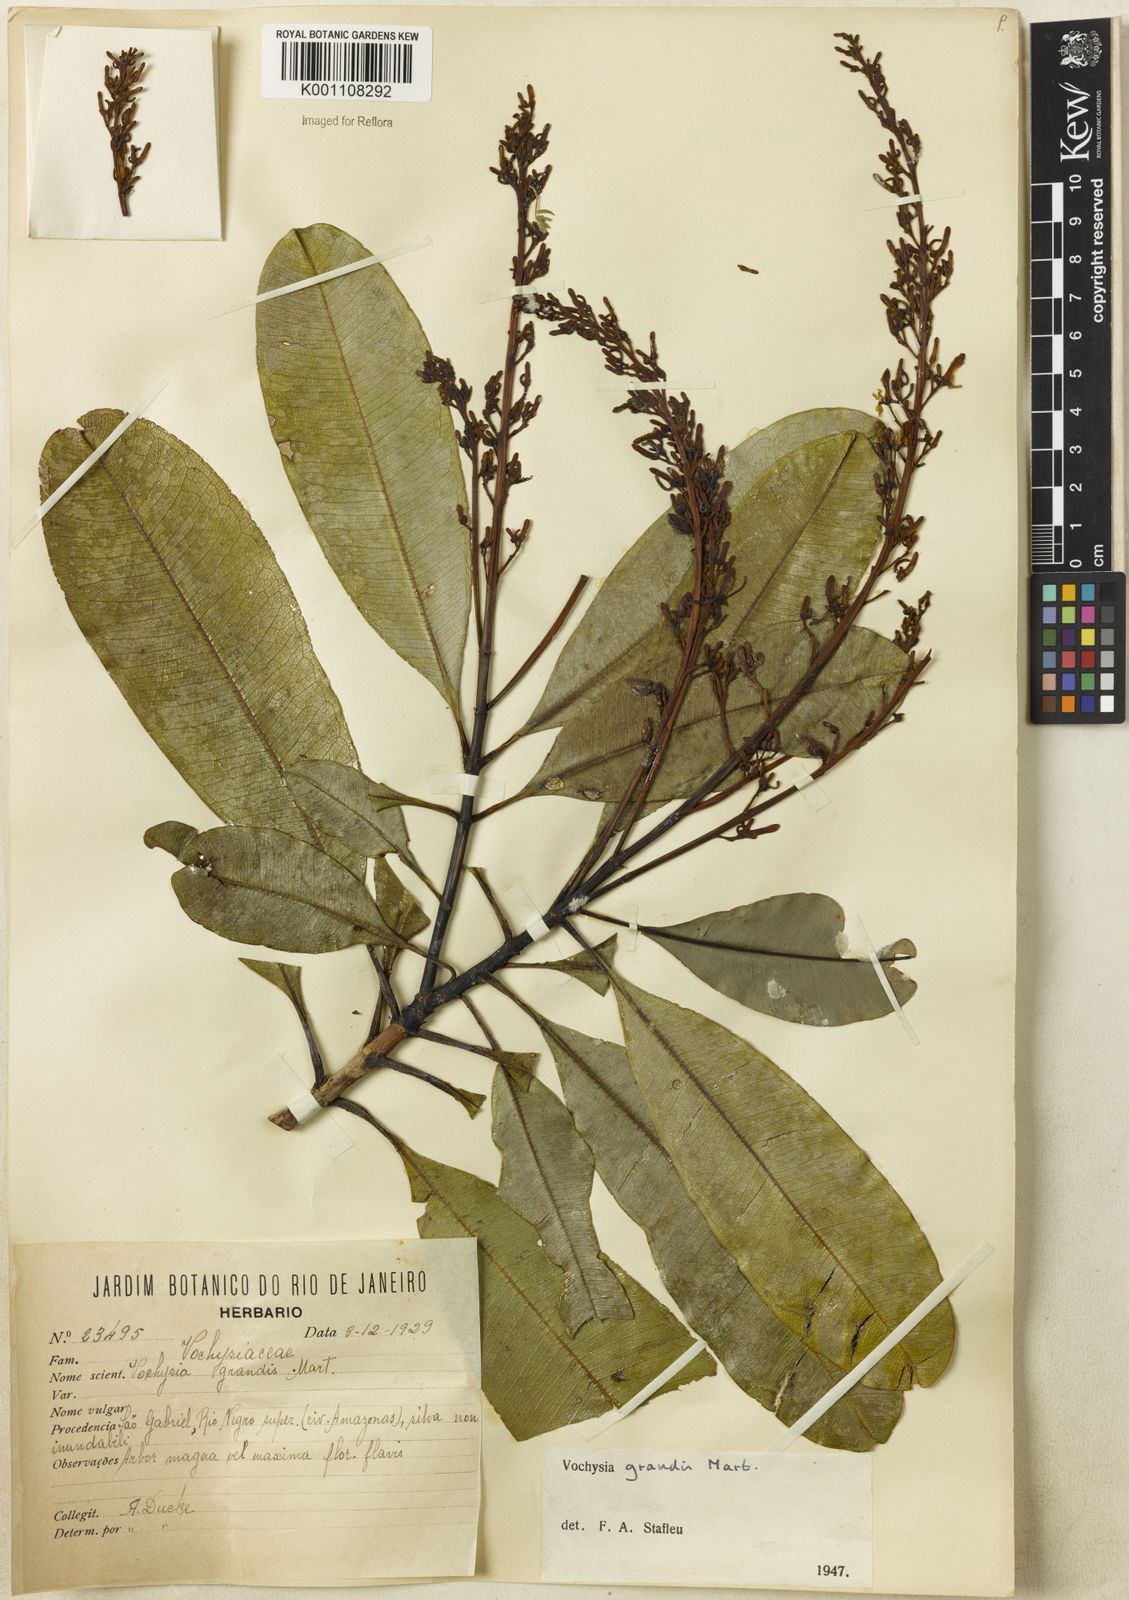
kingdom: Plantae
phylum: Tracheophyta
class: Magnoliopsida
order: Myrtales
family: Vochysiaceae
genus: Vochysia
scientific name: Vochysia grandis
